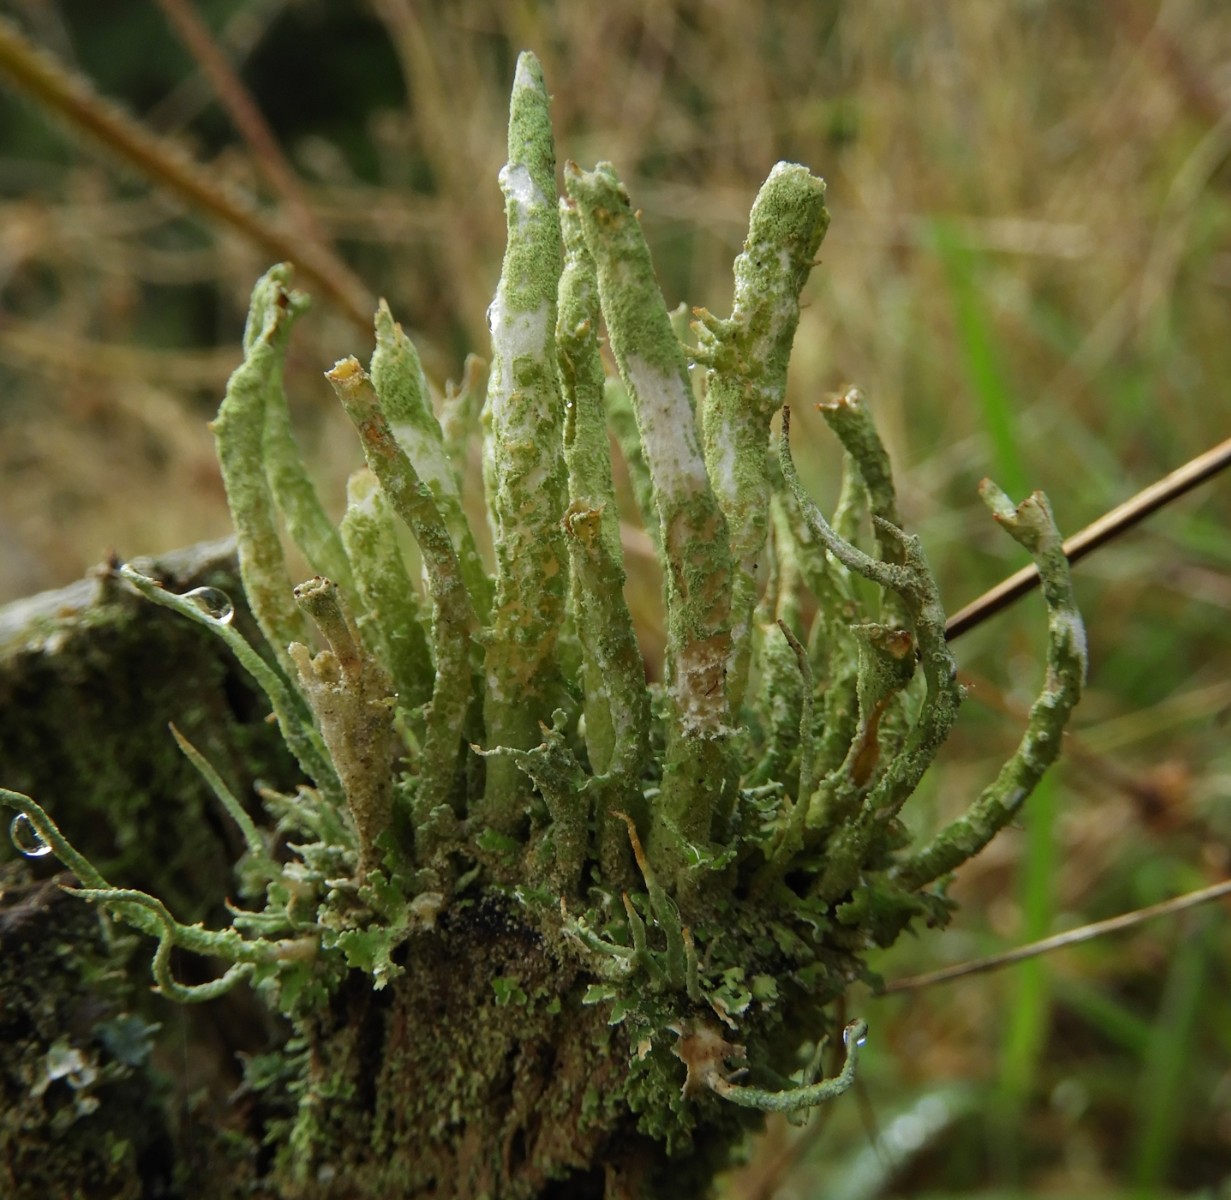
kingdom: Fungi
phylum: Ascomycota
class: Lecanoromycetes
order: Lecanorales
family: Cladoniaceae
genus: Cladonia
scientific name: Cladonia scabriuscula
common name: ru bægerlav
